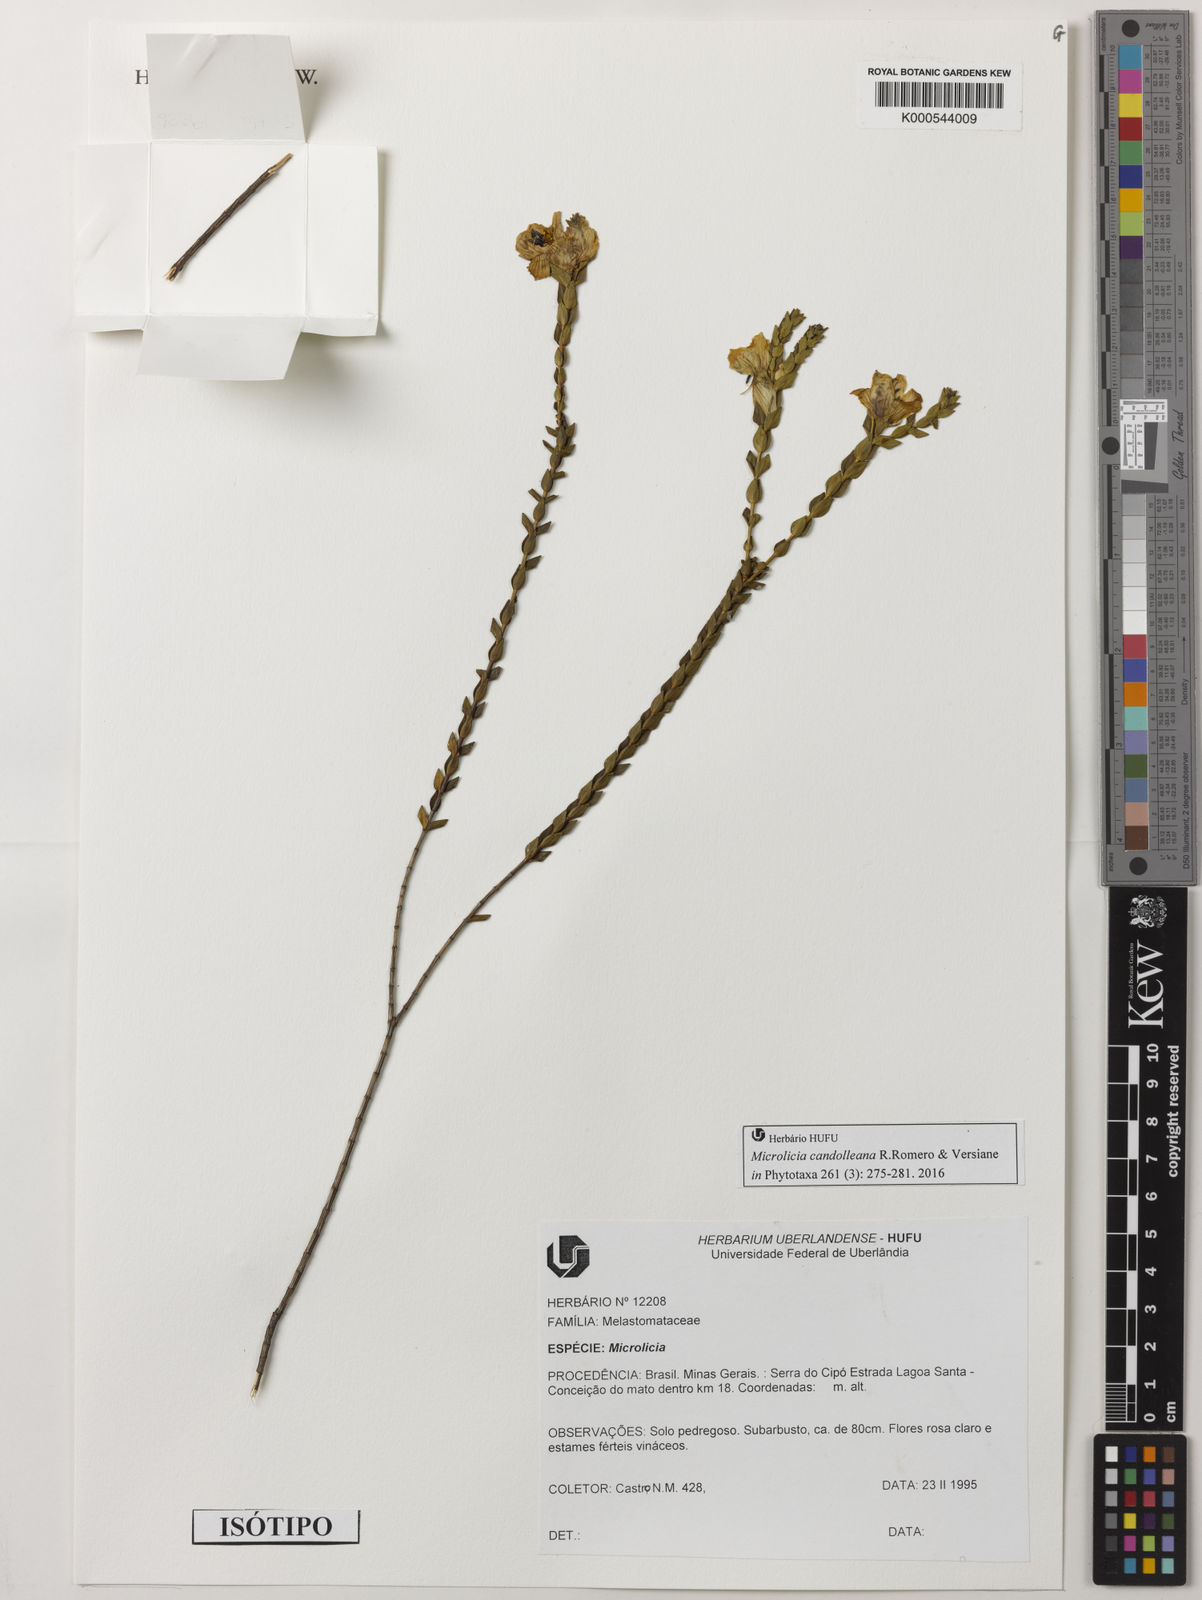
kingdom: Plantae
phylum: Tracheophyta
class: Magnoliopsida
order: Myrtales
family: Melastomataceae
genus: Microlicia
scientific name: Microlicia candolleana
